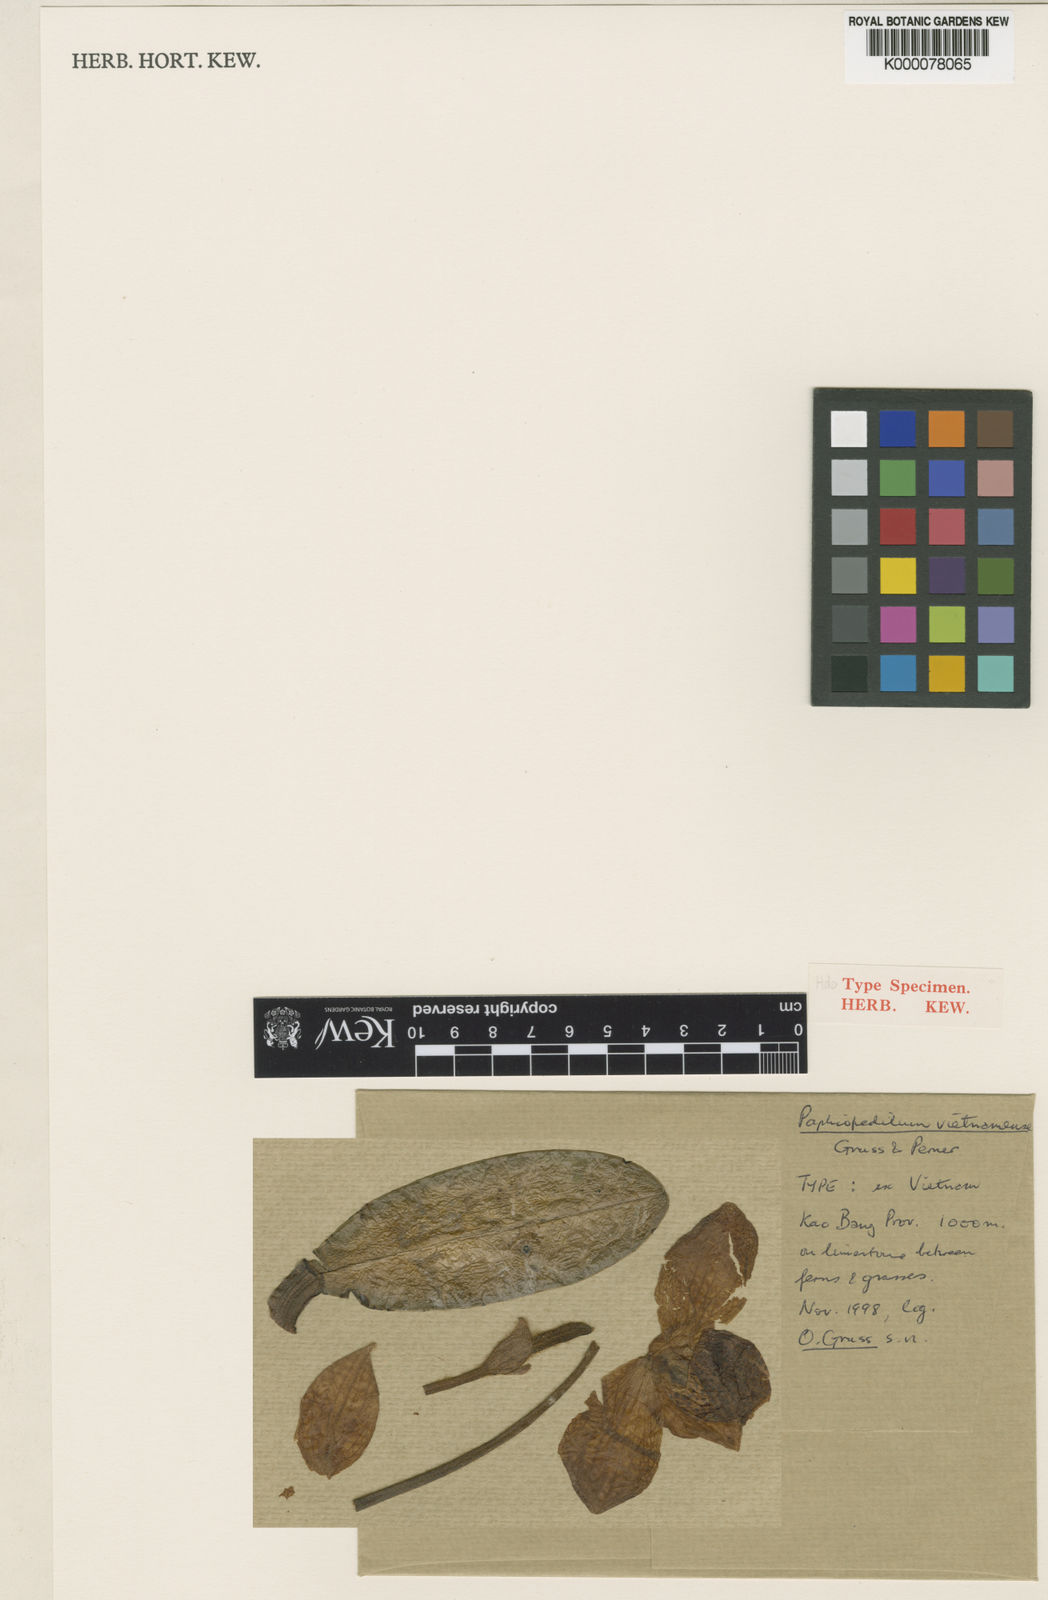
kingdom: Plantae
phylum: Tracheophyta
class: Liliopsida
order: Asparagales
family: Orchidaceae
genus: Paphiopedilum
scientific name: Paphiopedilum vietnamense
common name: Vietnamese paphiopedilum
